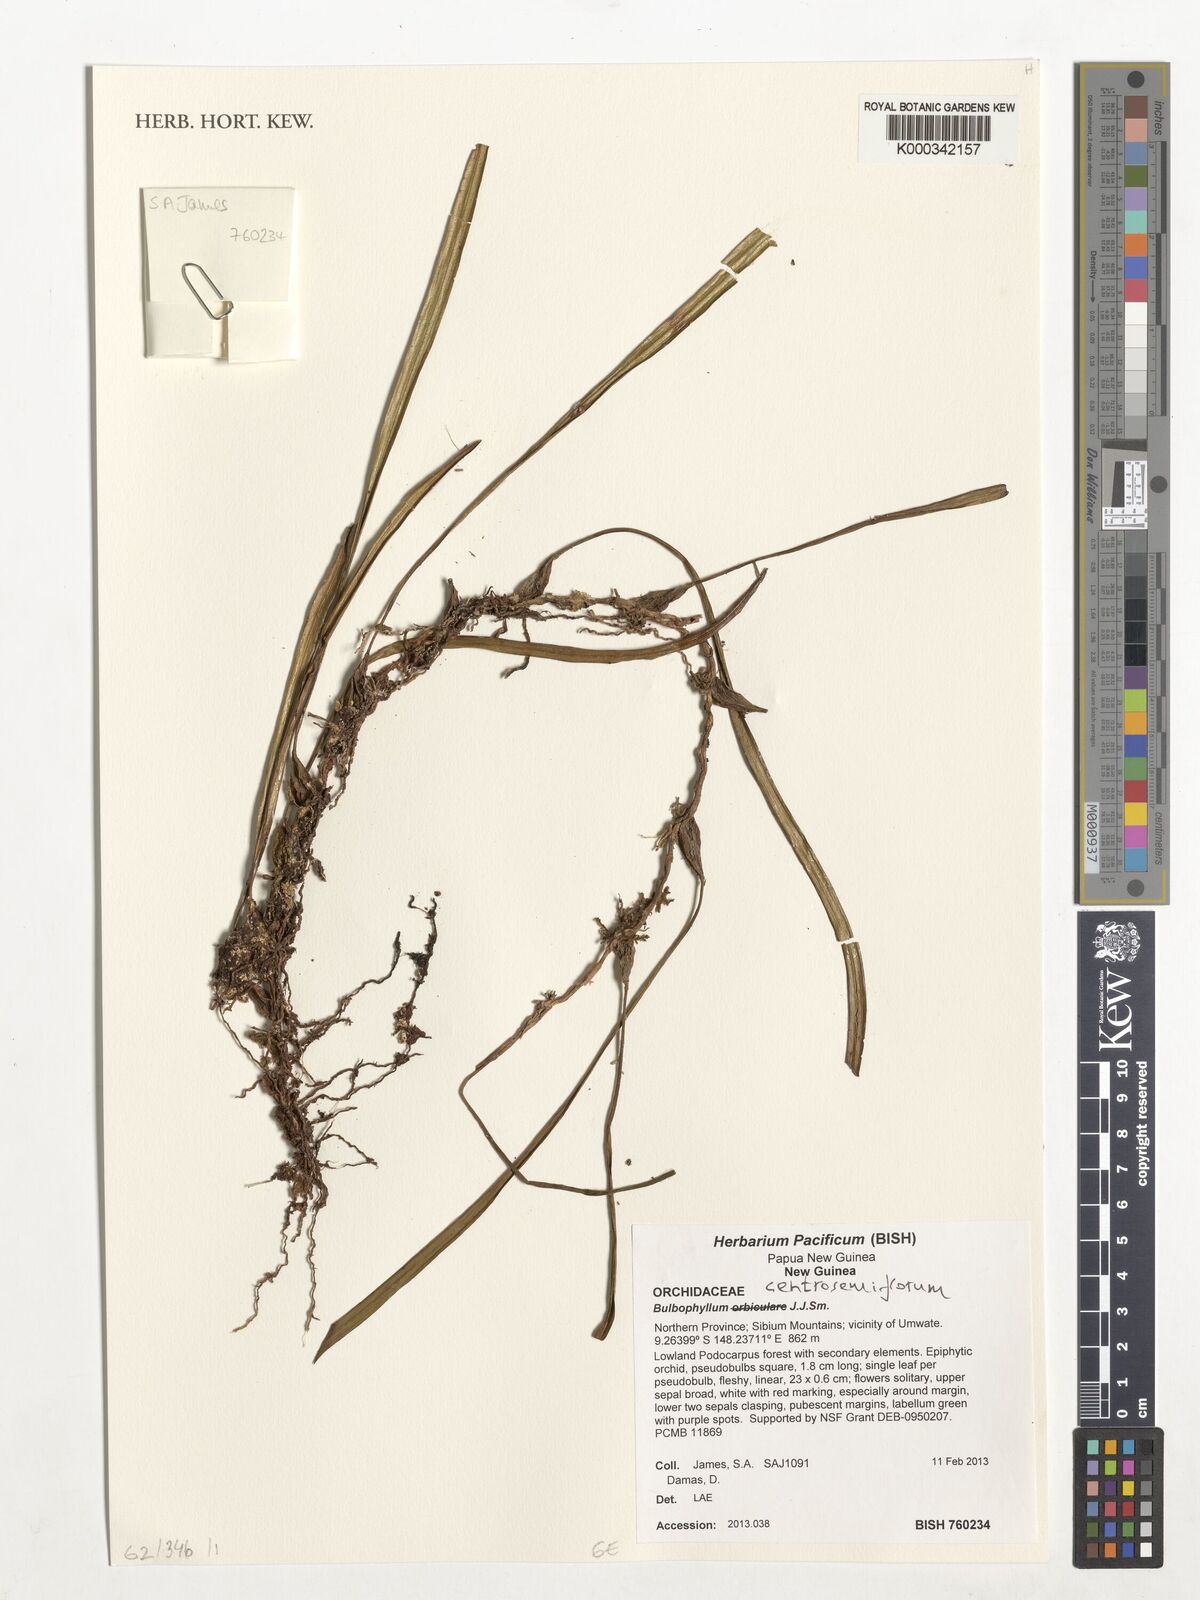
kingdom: Plantae
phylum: Tracheophyta
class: Liliopsida
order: Asparagales
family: Orchidaceae
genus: Bulbophyllum
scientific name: Bulbophyllum centrosemiflorum
